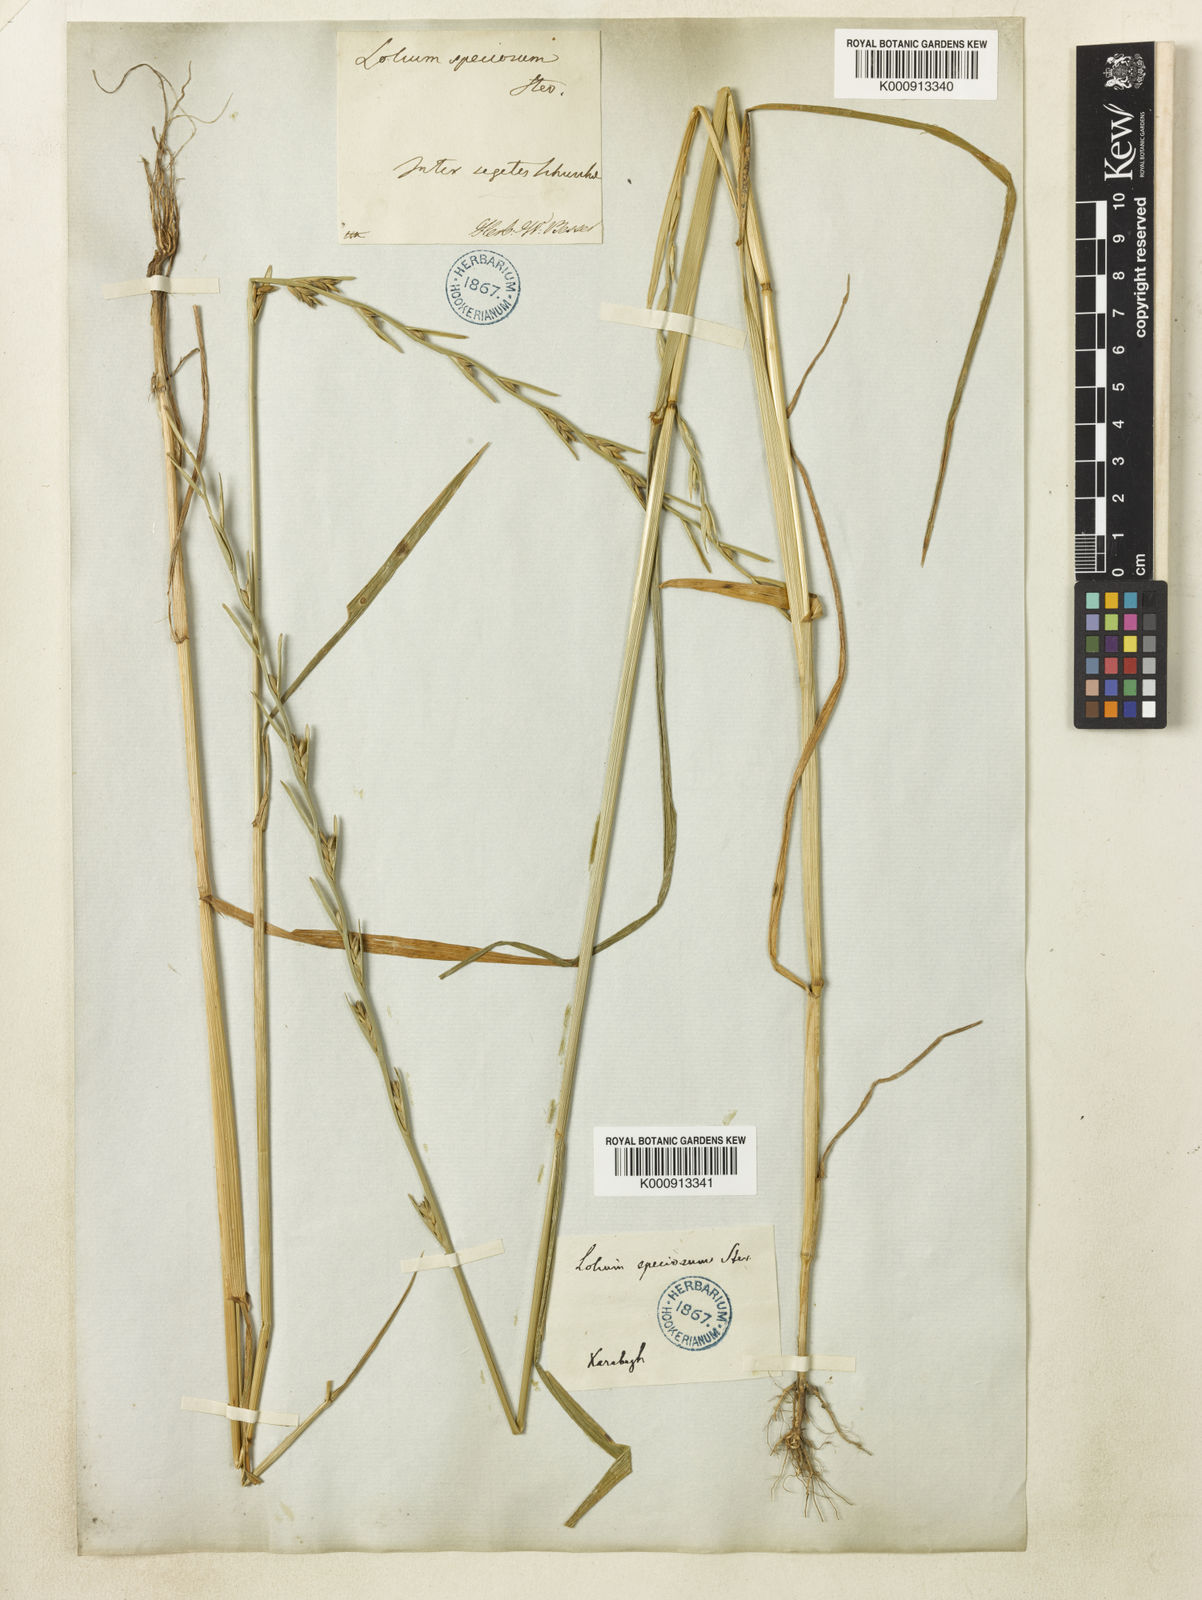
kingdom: Plantae
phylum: Tracheophyta
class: Liliopsida
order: Poales
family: Poaceae
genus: Lolium
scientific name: Lolium temulentum
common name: Darnel
